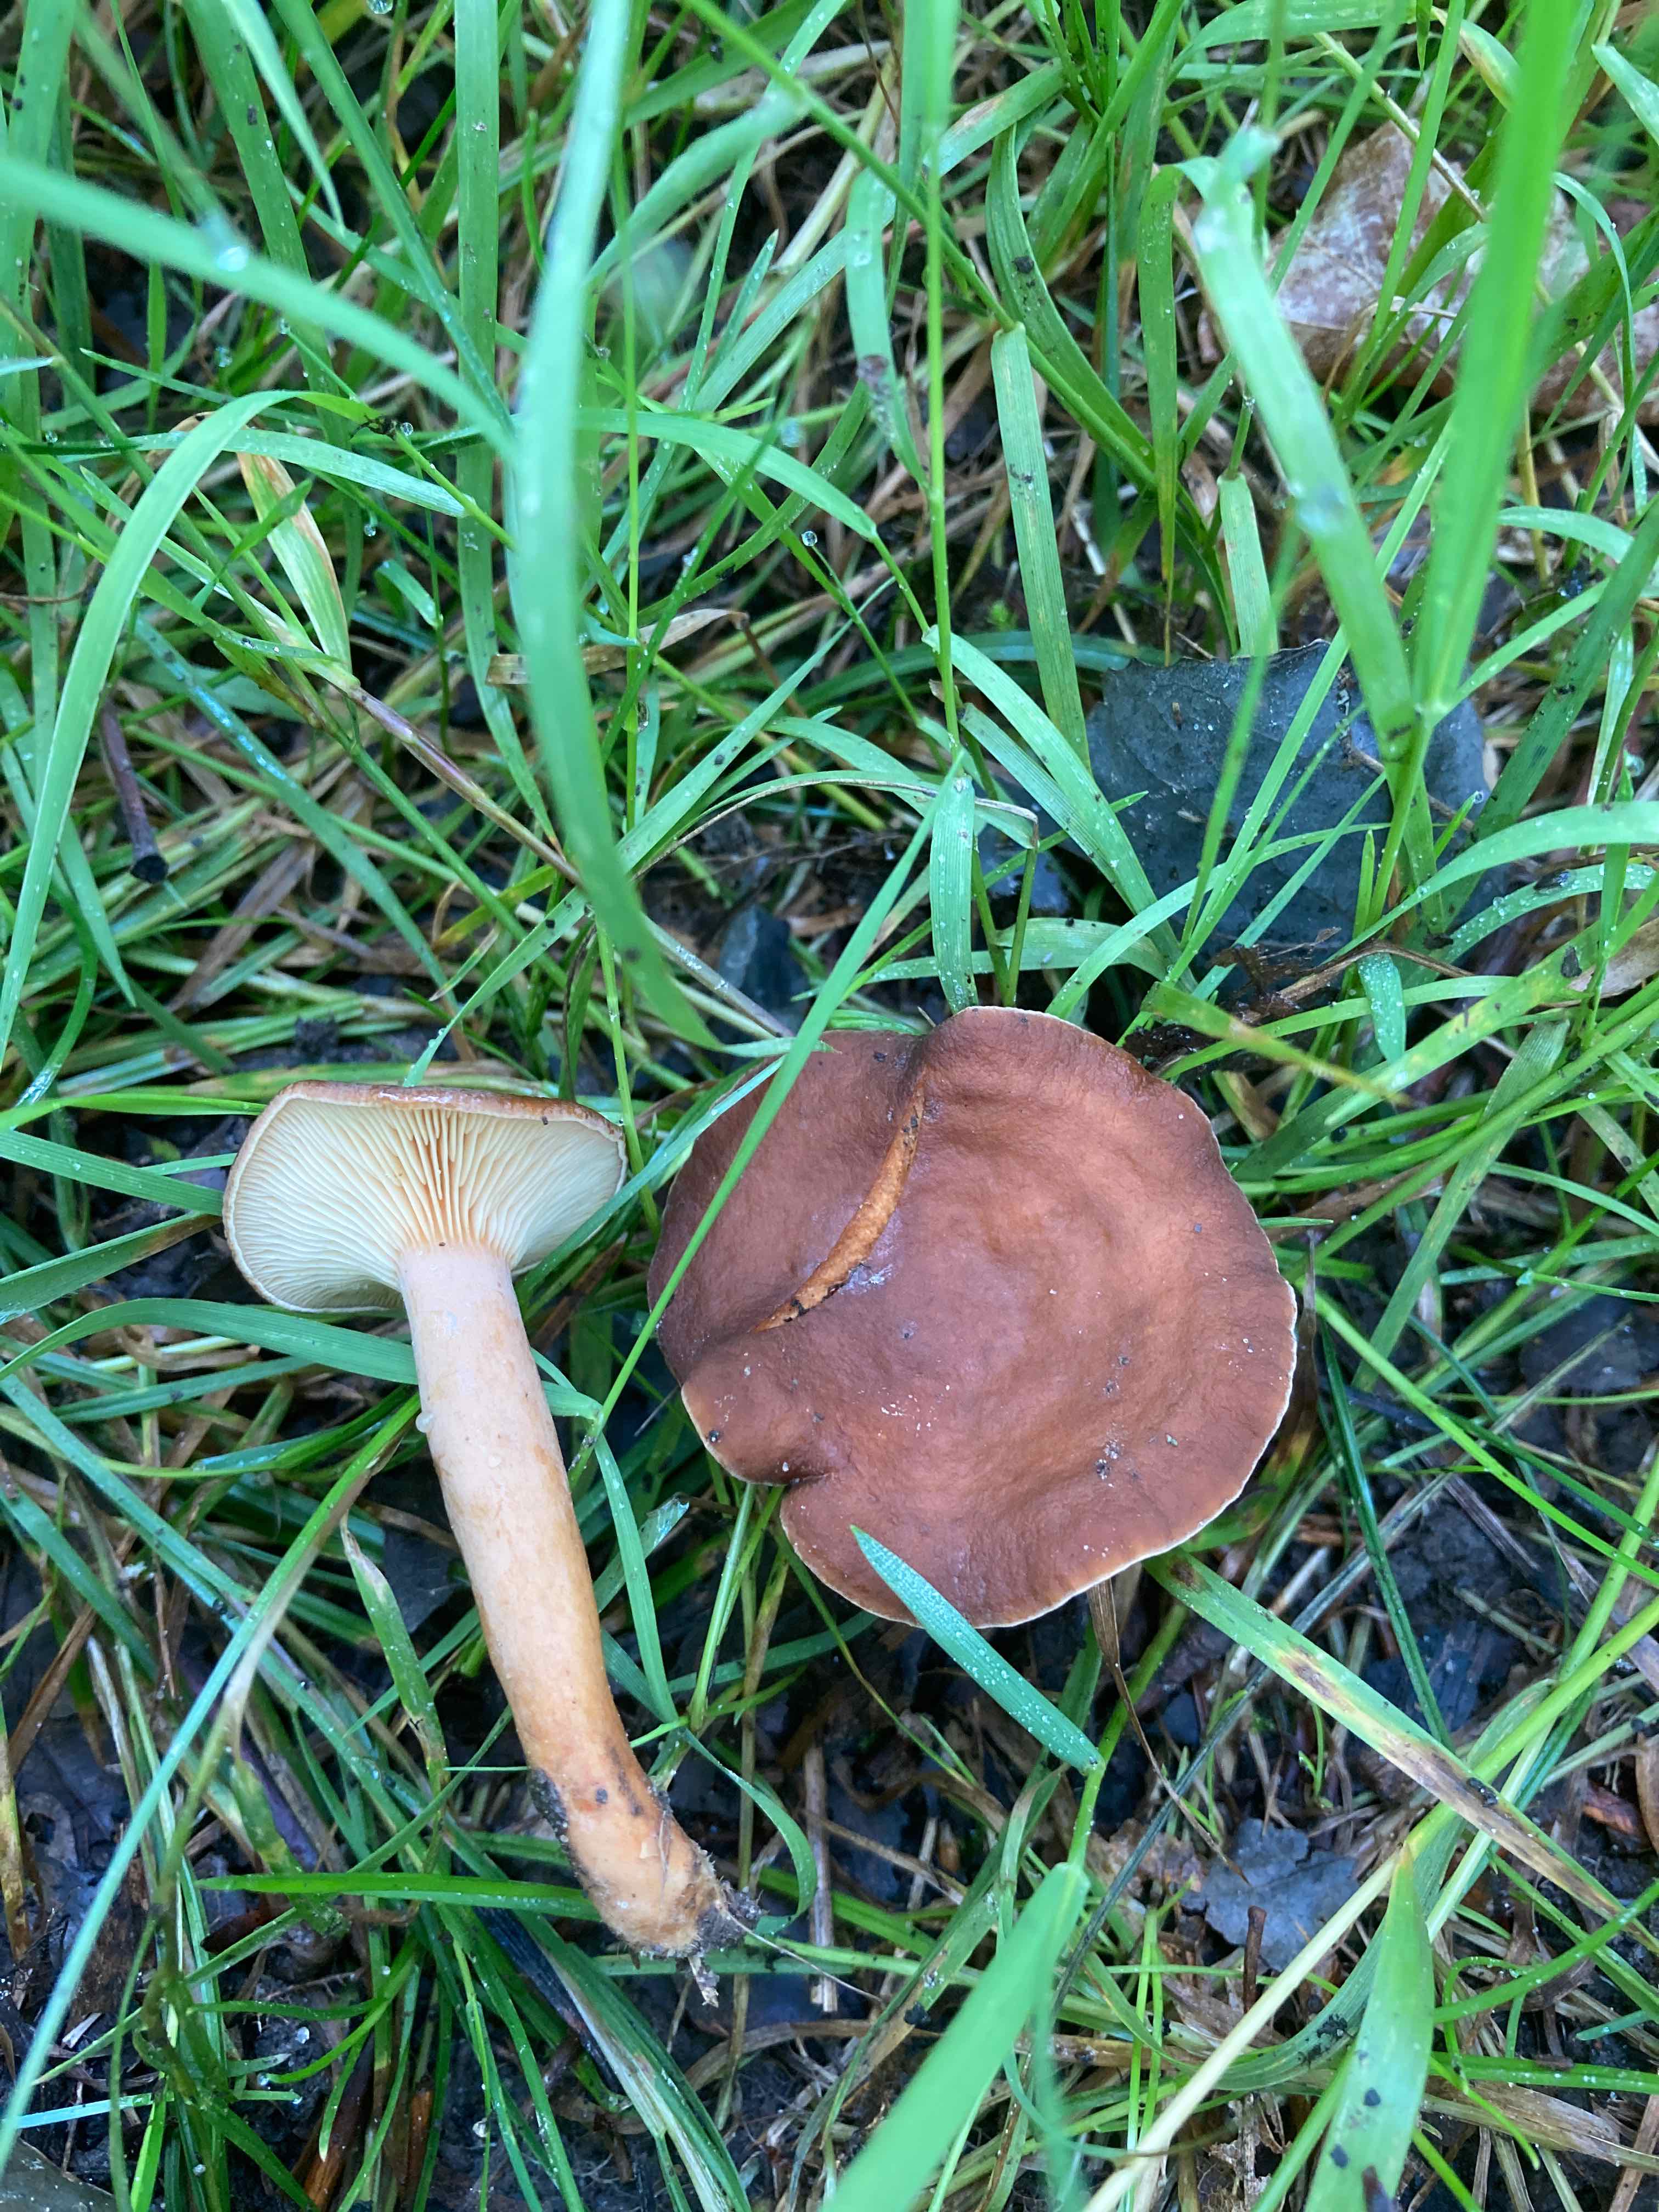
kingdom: Fungi
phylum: Basidiomycota
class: Agaricomycetes
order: Russulales
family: Russulaceae
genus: Lactarius
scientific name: Lactarius serifluus
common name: tæge-mælkehat
